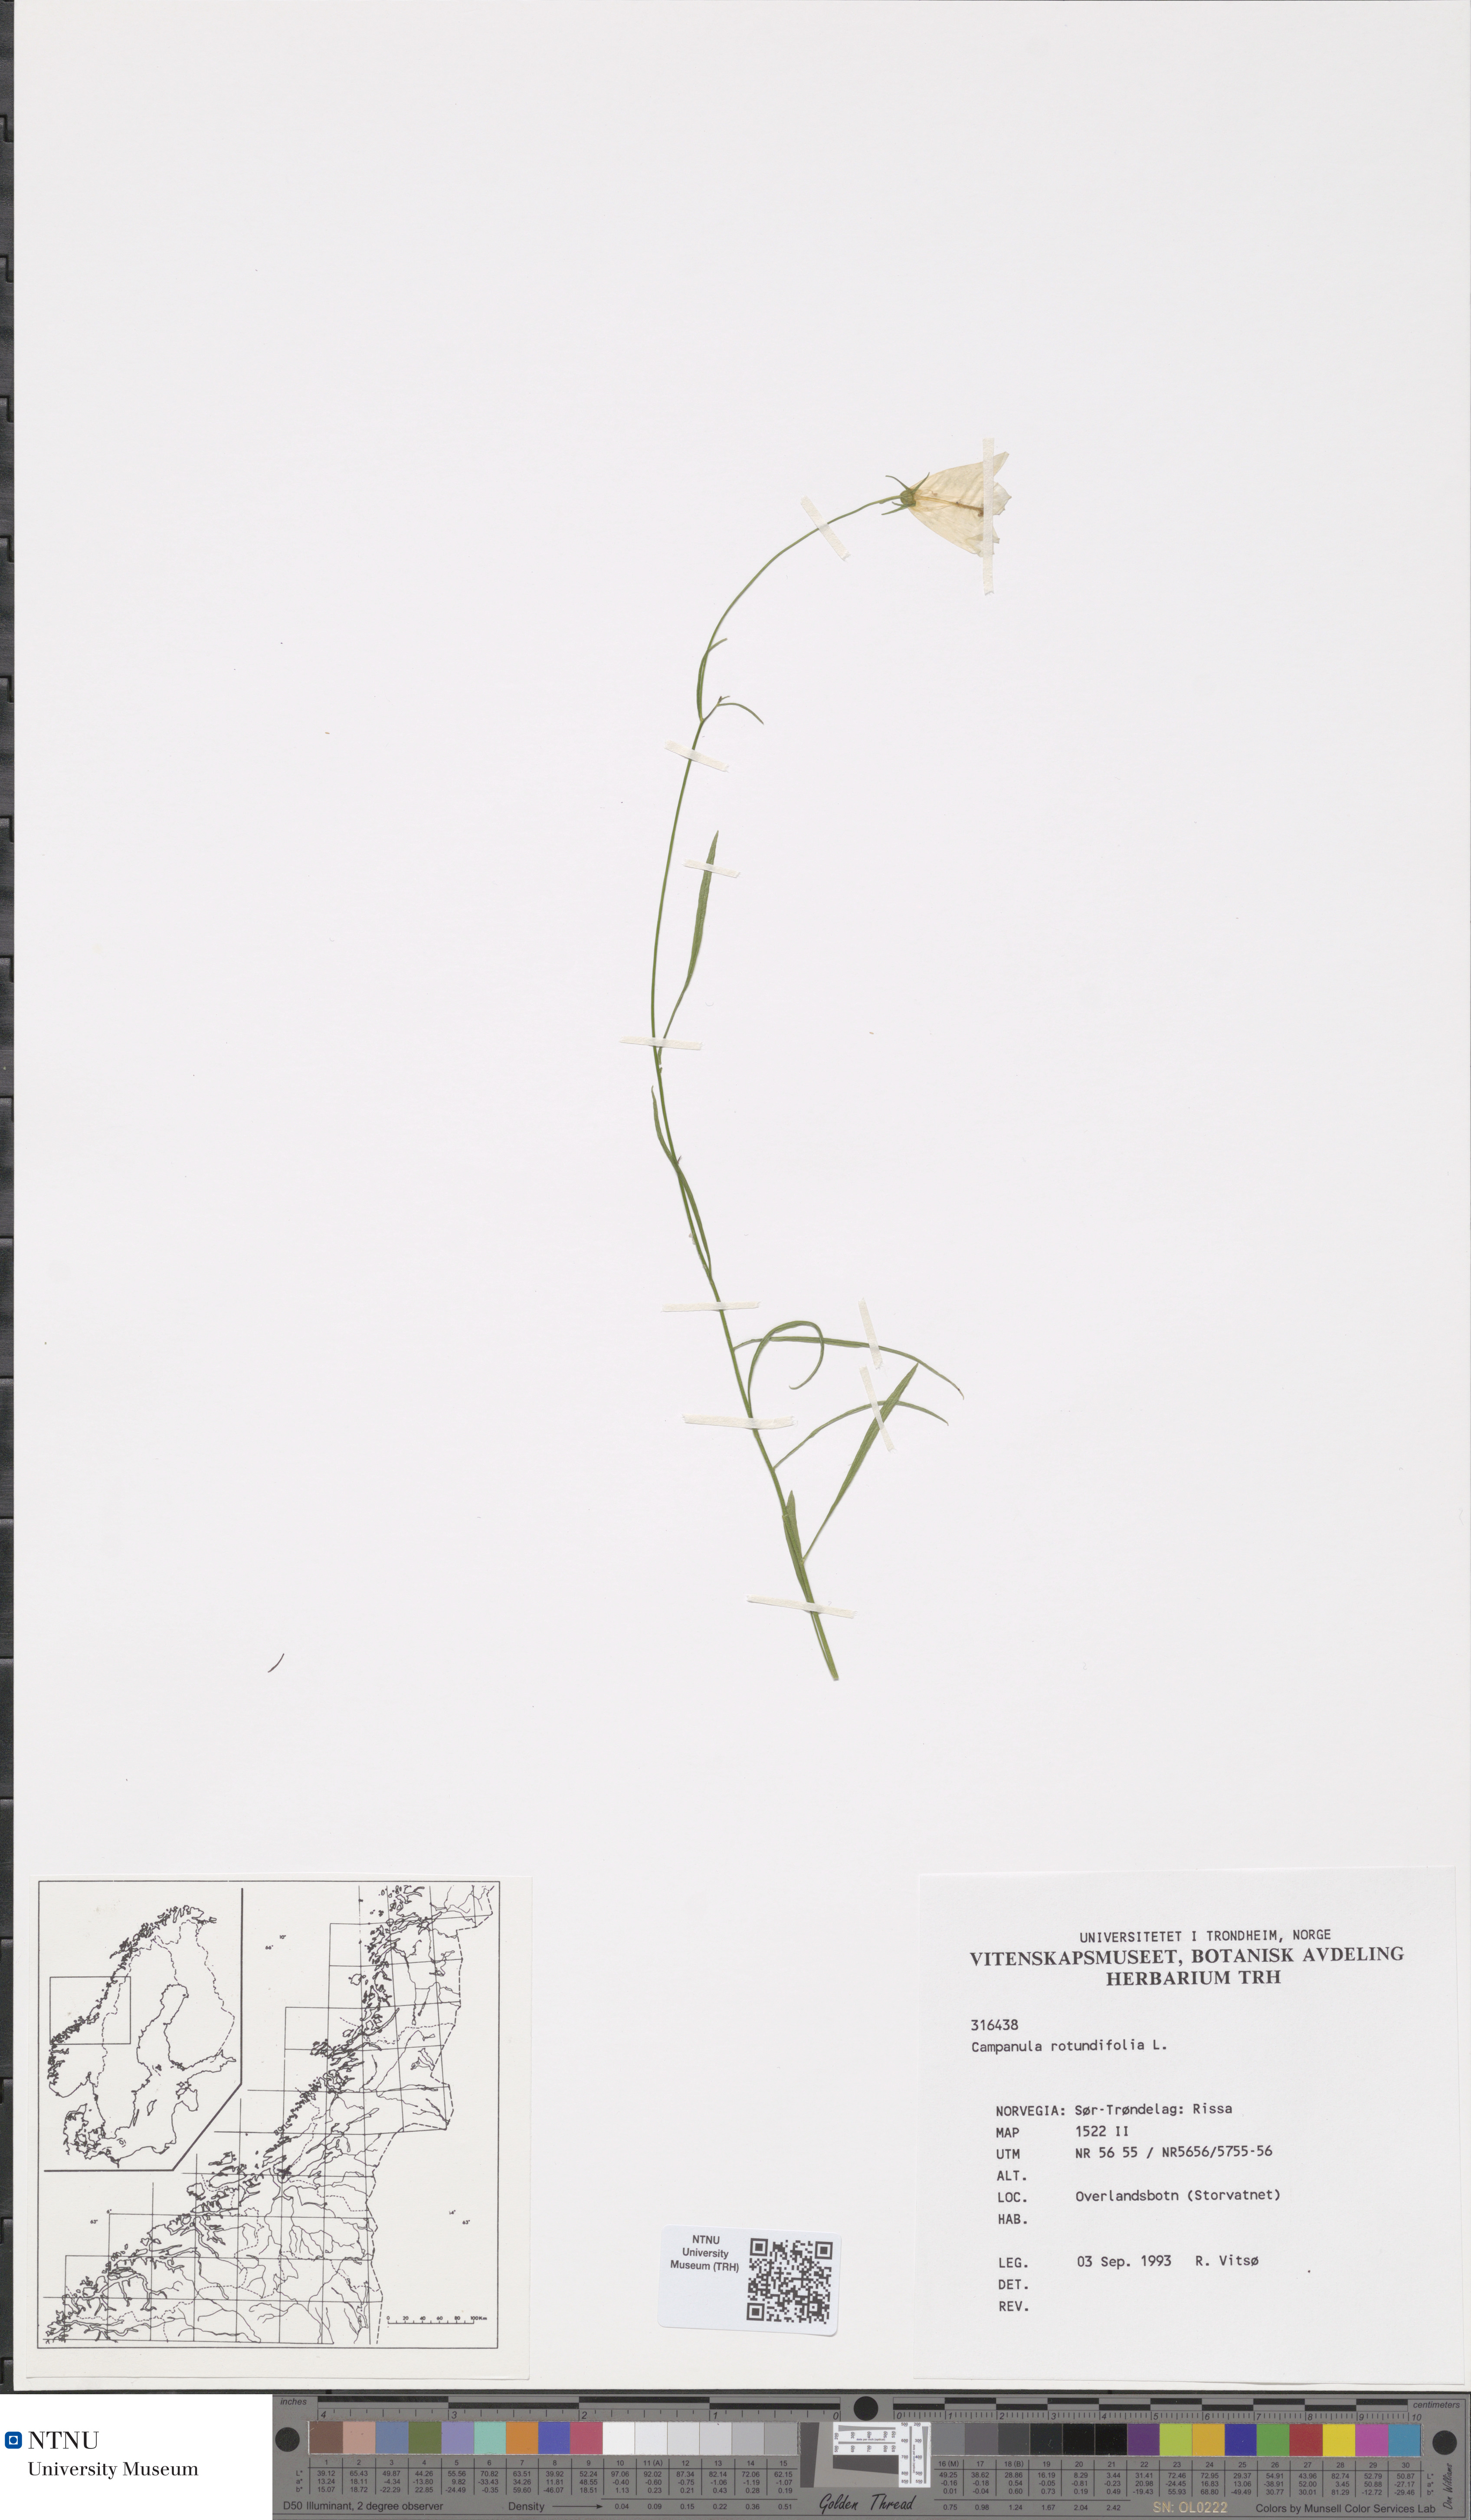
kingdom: Plantae
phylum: Tracheophyta
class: Magnoliopsida
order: Asterales
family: Campanulaceae
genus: Campanula
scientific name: Campanula rotundifolia
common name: Harebell
